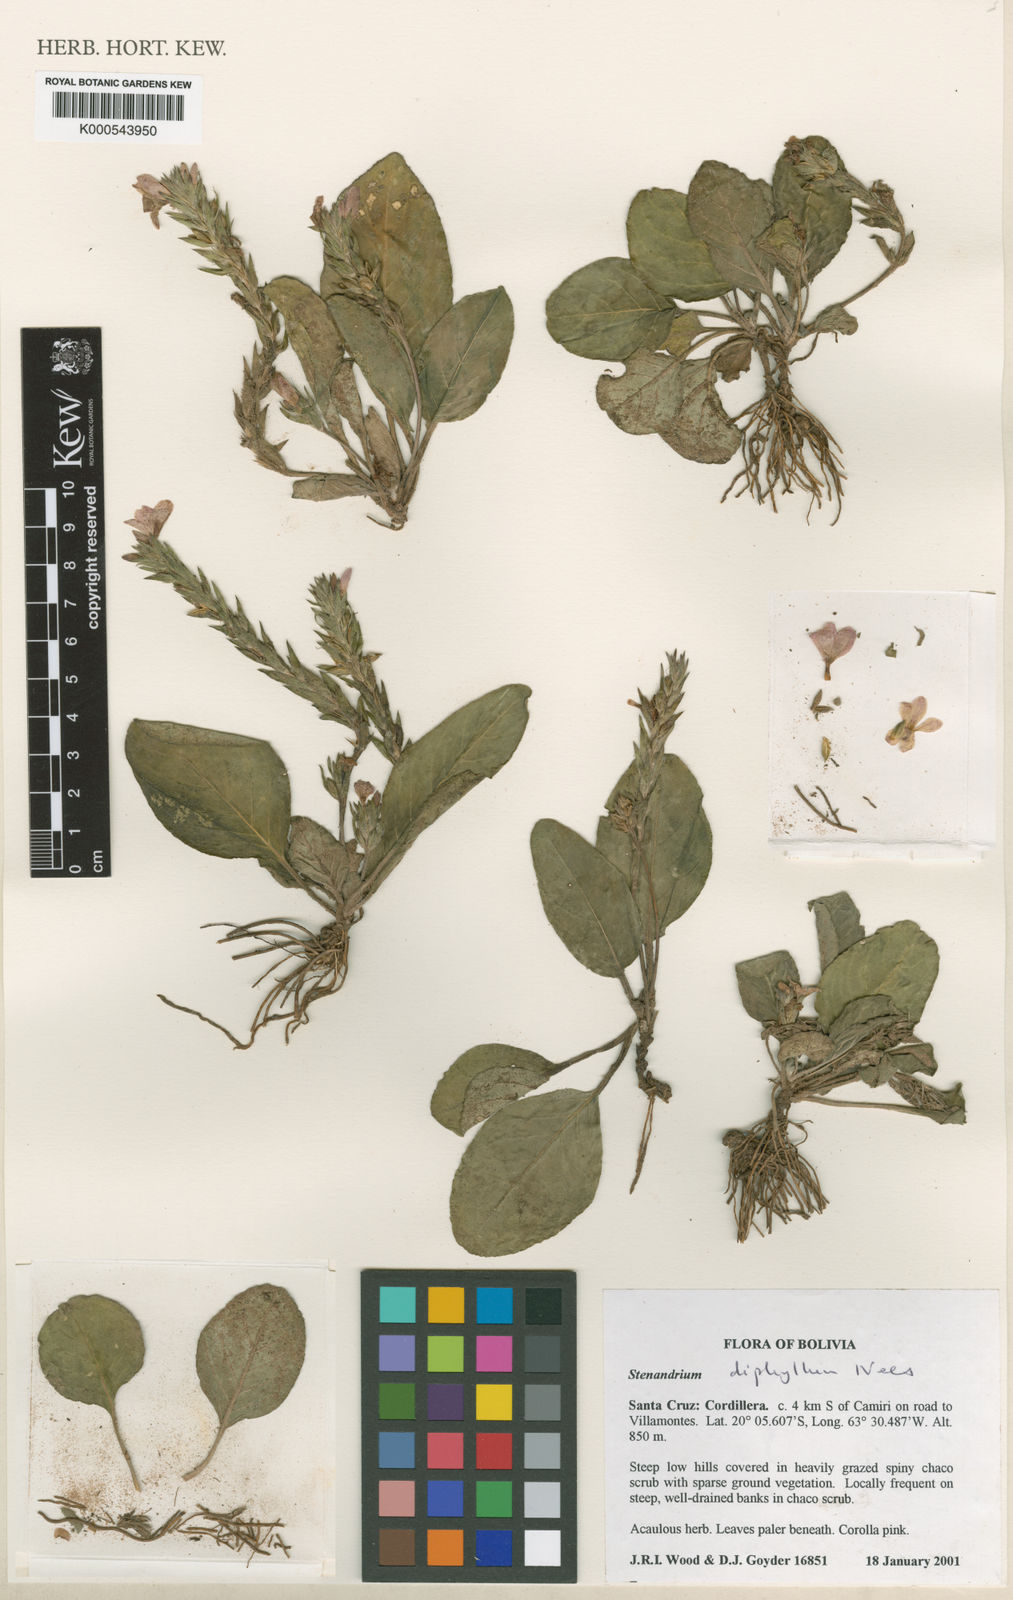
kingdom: Plantae
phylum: Tracheophyta
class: Magnoliopsida
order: Lamiales
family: Acanthaceae
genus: Stenandrium
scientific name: Stenandrium diphyllum
